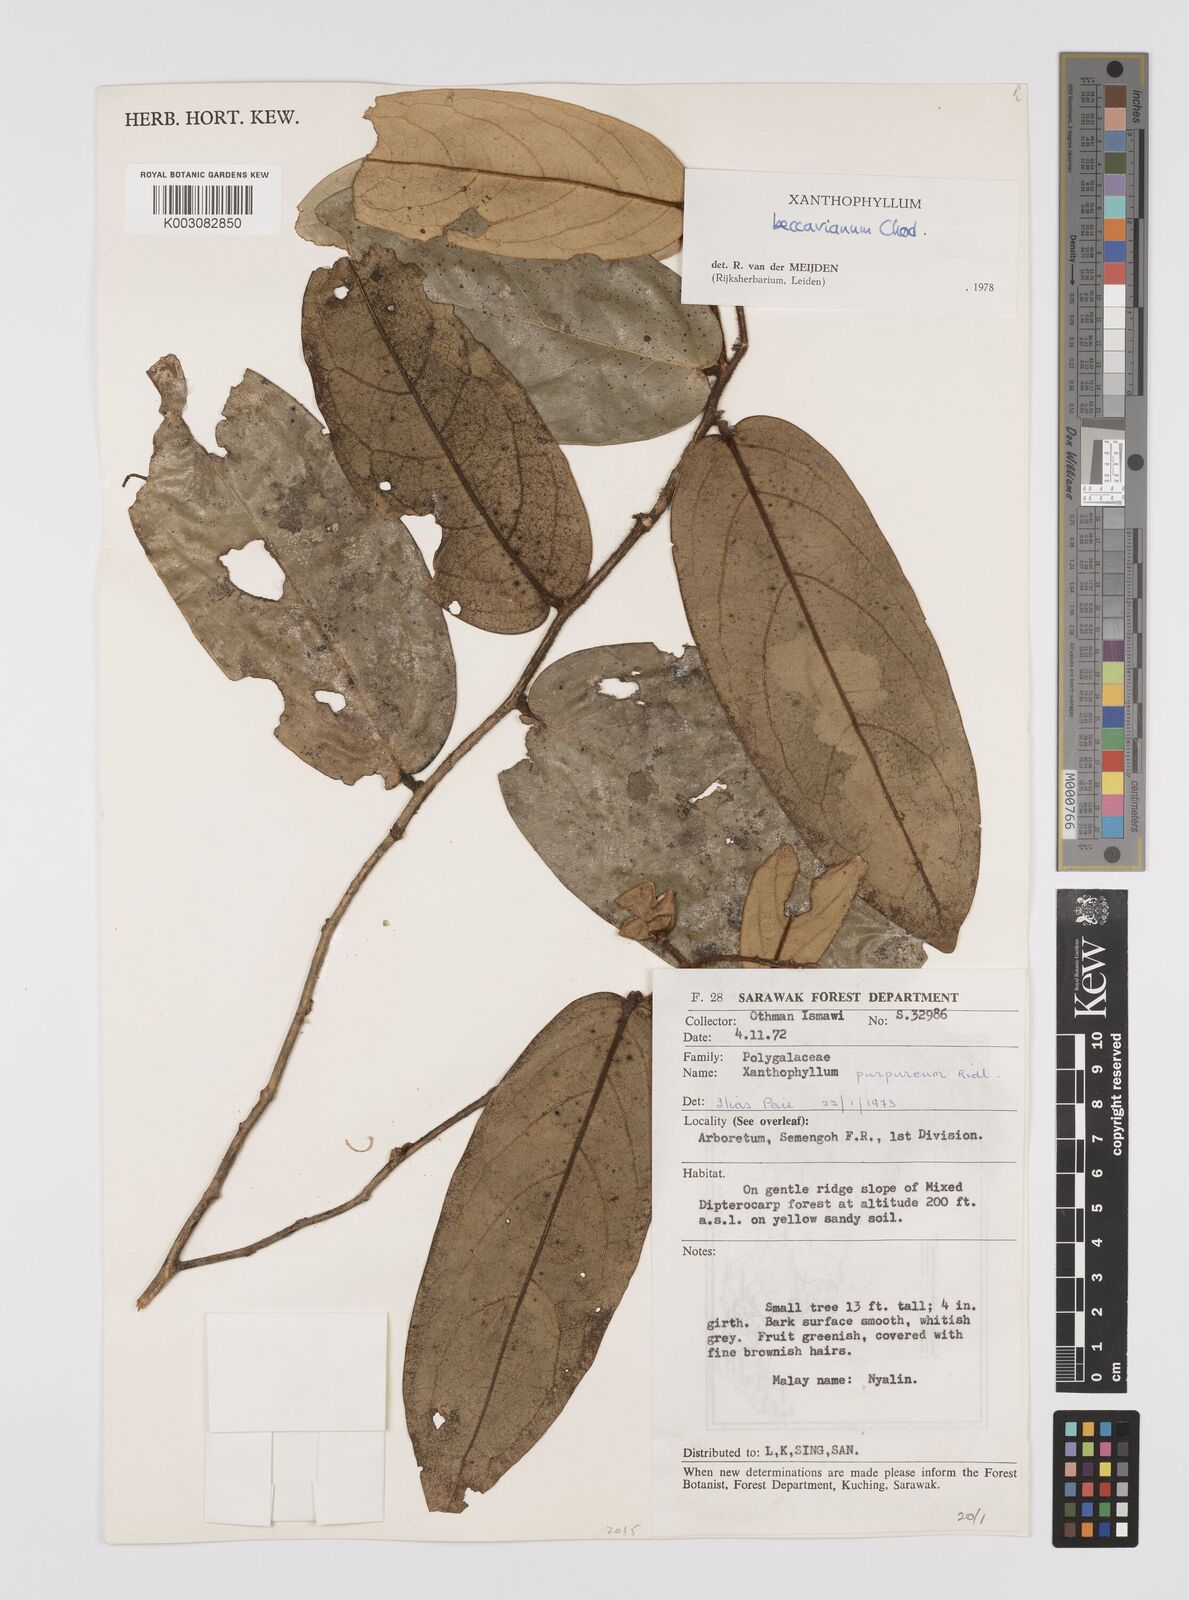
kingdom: Plantae
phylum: Tracheophyta
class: Magnoliopsida
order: Fabales
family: Polygalaceae
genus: Xanthophyllum
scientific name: Xanthophyllum beccarianum
